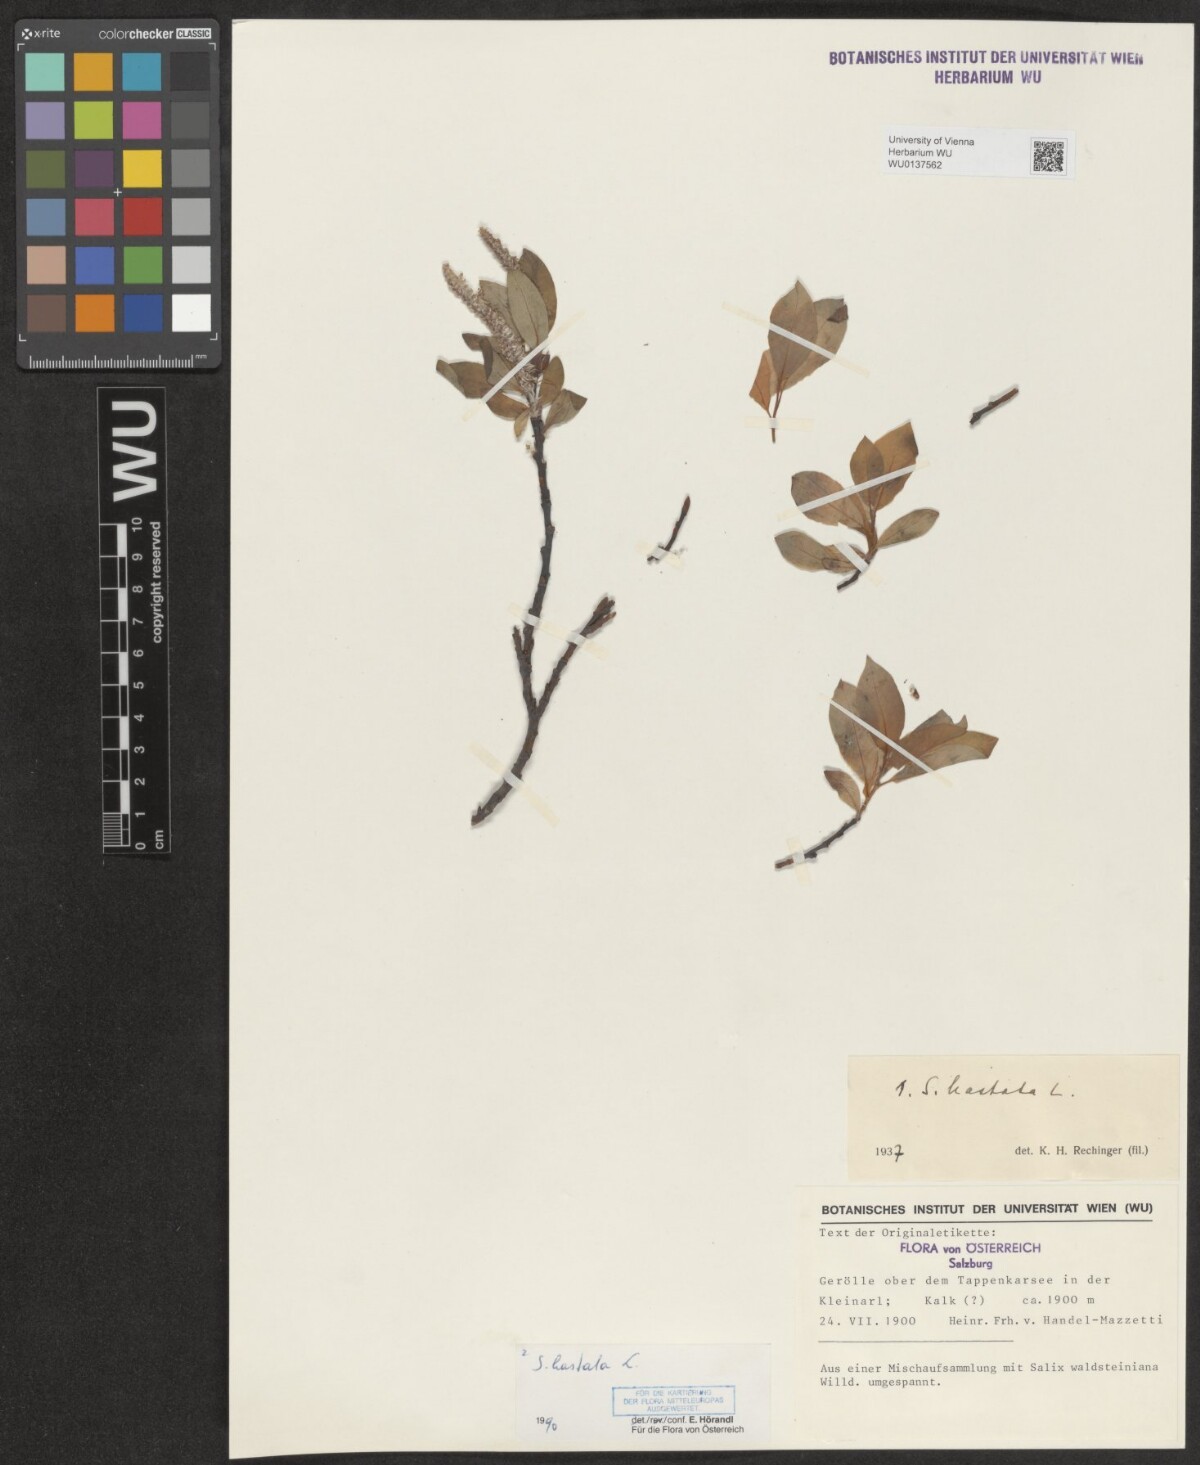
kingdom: Plantae
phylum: Tracheophyta
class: Magnoliopsida
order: Malpighiales
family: Salicaceae
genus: Salix
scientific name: Salix hastata
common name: Halberd willow
